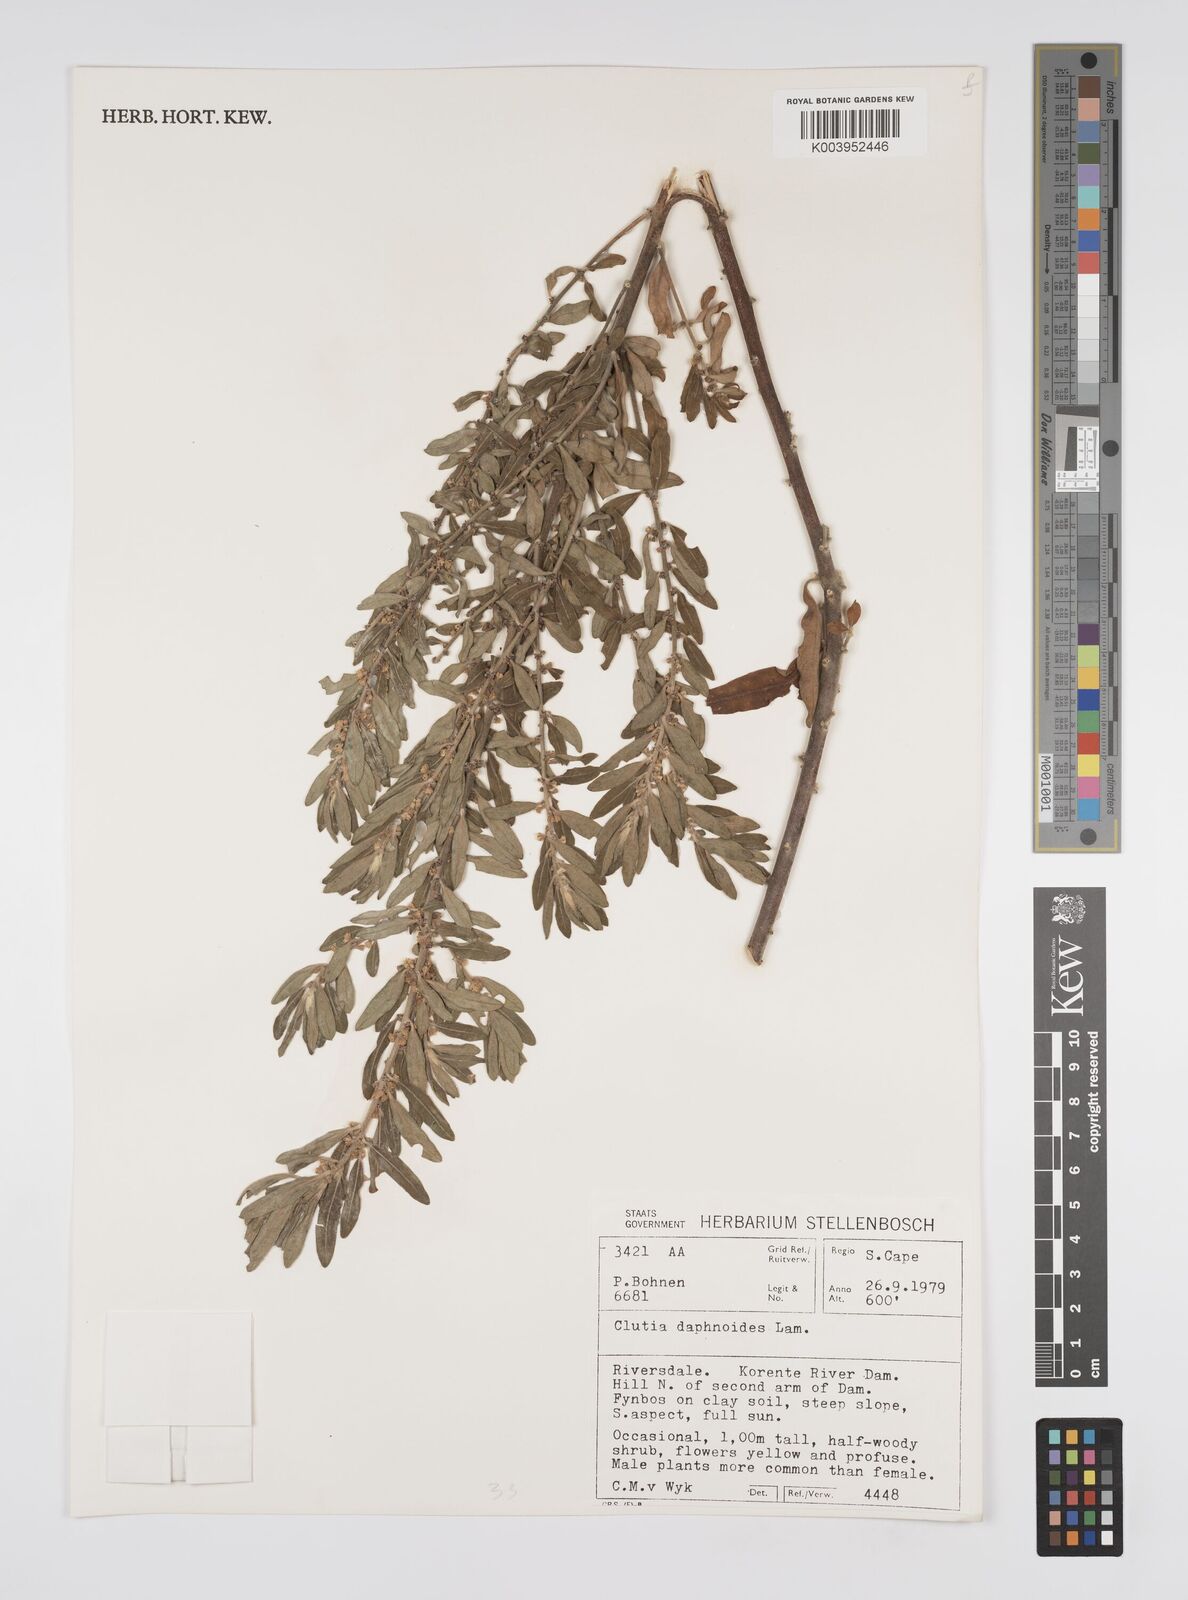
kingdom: Plantae
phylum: Tracheophyta
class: Magnoliopsida
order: Malpighiales
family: Peraceae
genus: Clutia
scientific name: Clutia daphnoides
